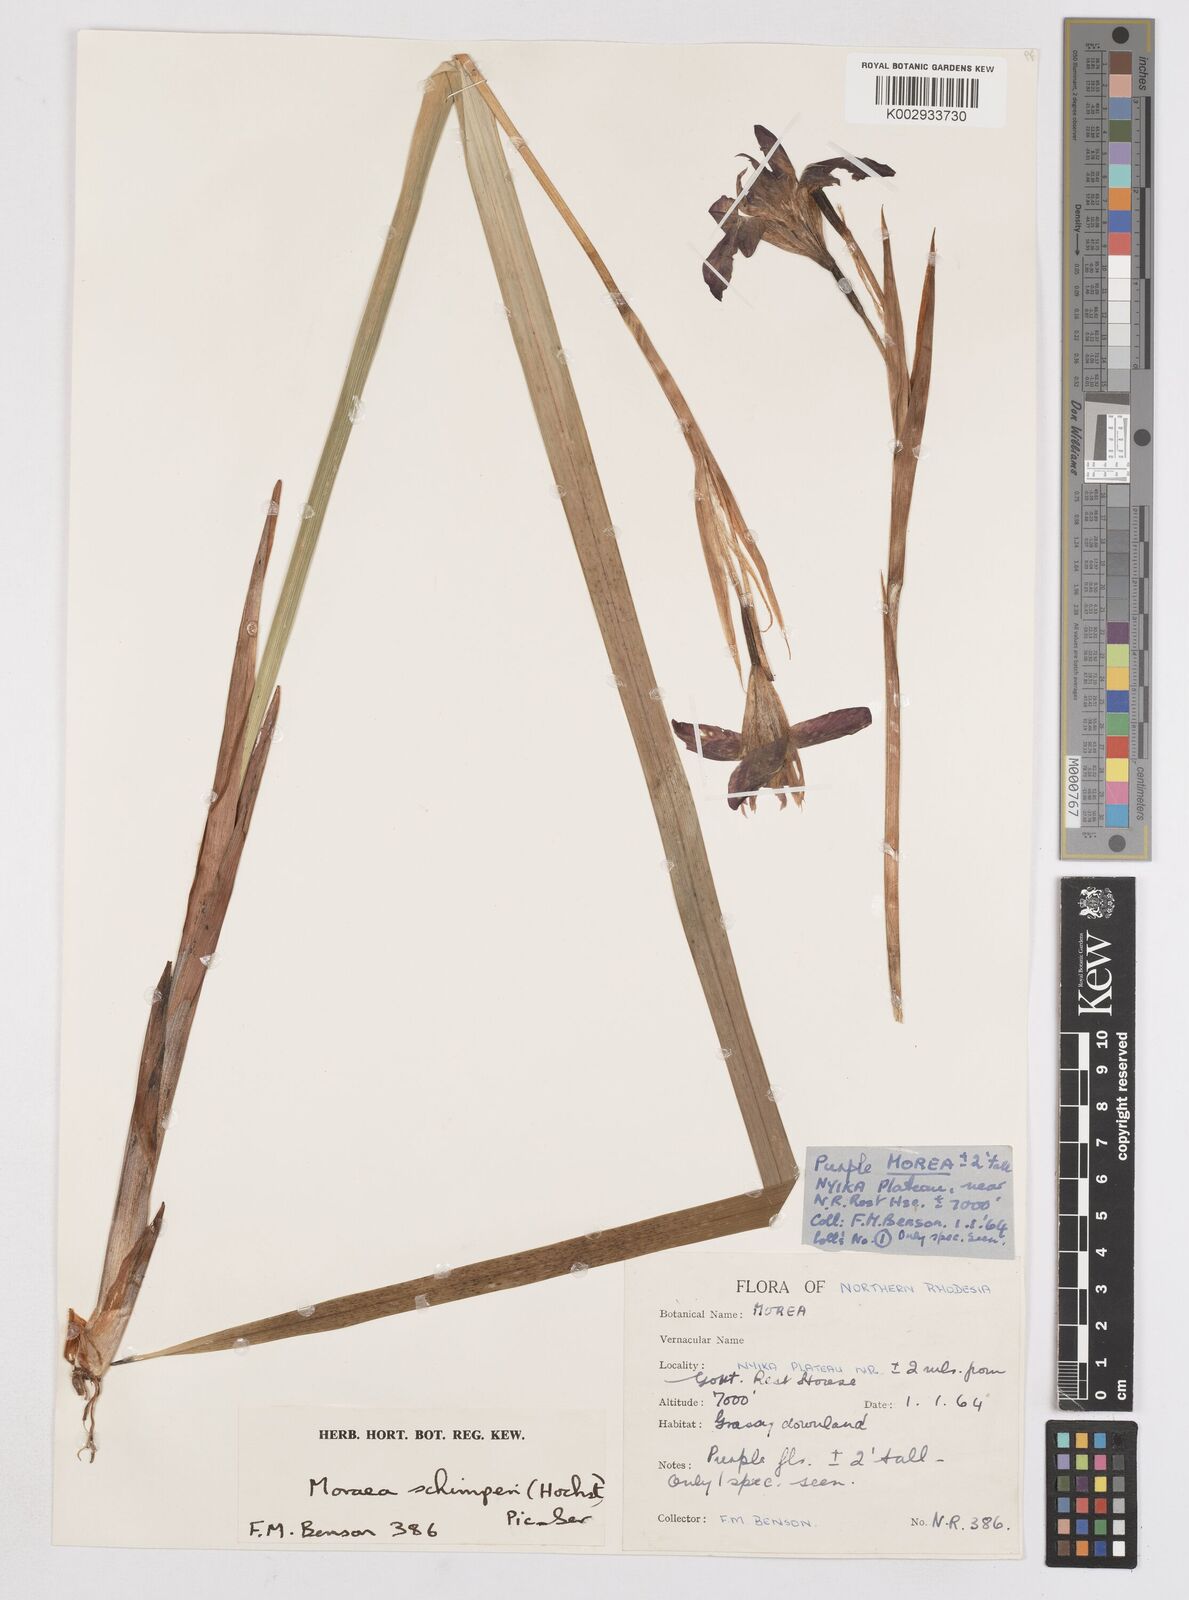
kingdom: Plantae
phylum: Tracheophyta
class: Liliopsida
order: Asparagales
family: Iridaceae
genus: Moraea
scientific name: Moraea schimperi
